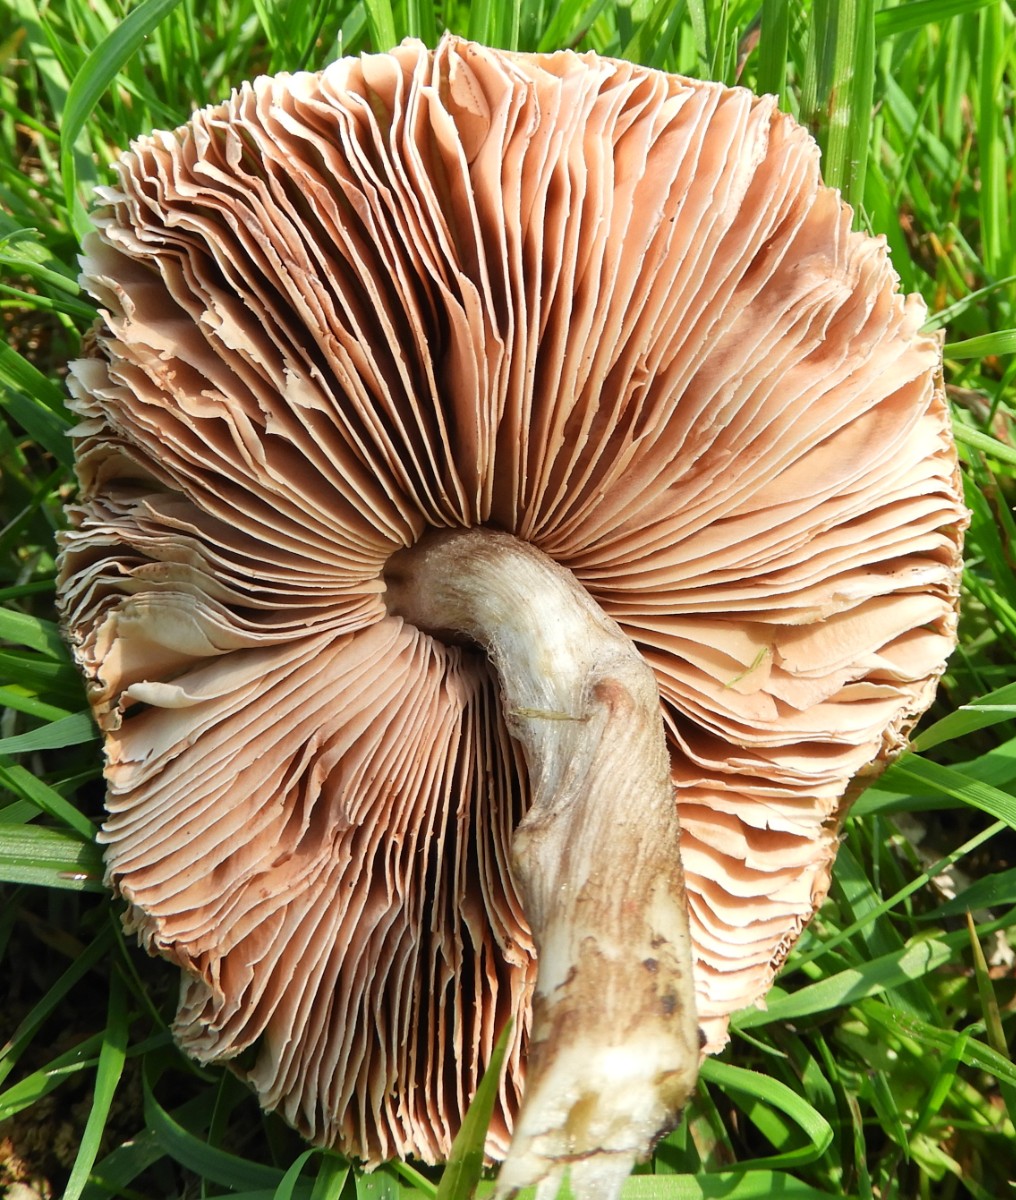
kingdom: Fungi
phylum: Basidiomycota
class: Agaricomycetes
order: Agaricales
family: Pluteaceae
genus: Pluteus
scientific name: Pluteus cervinus
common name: sodfarvet skærmhat
